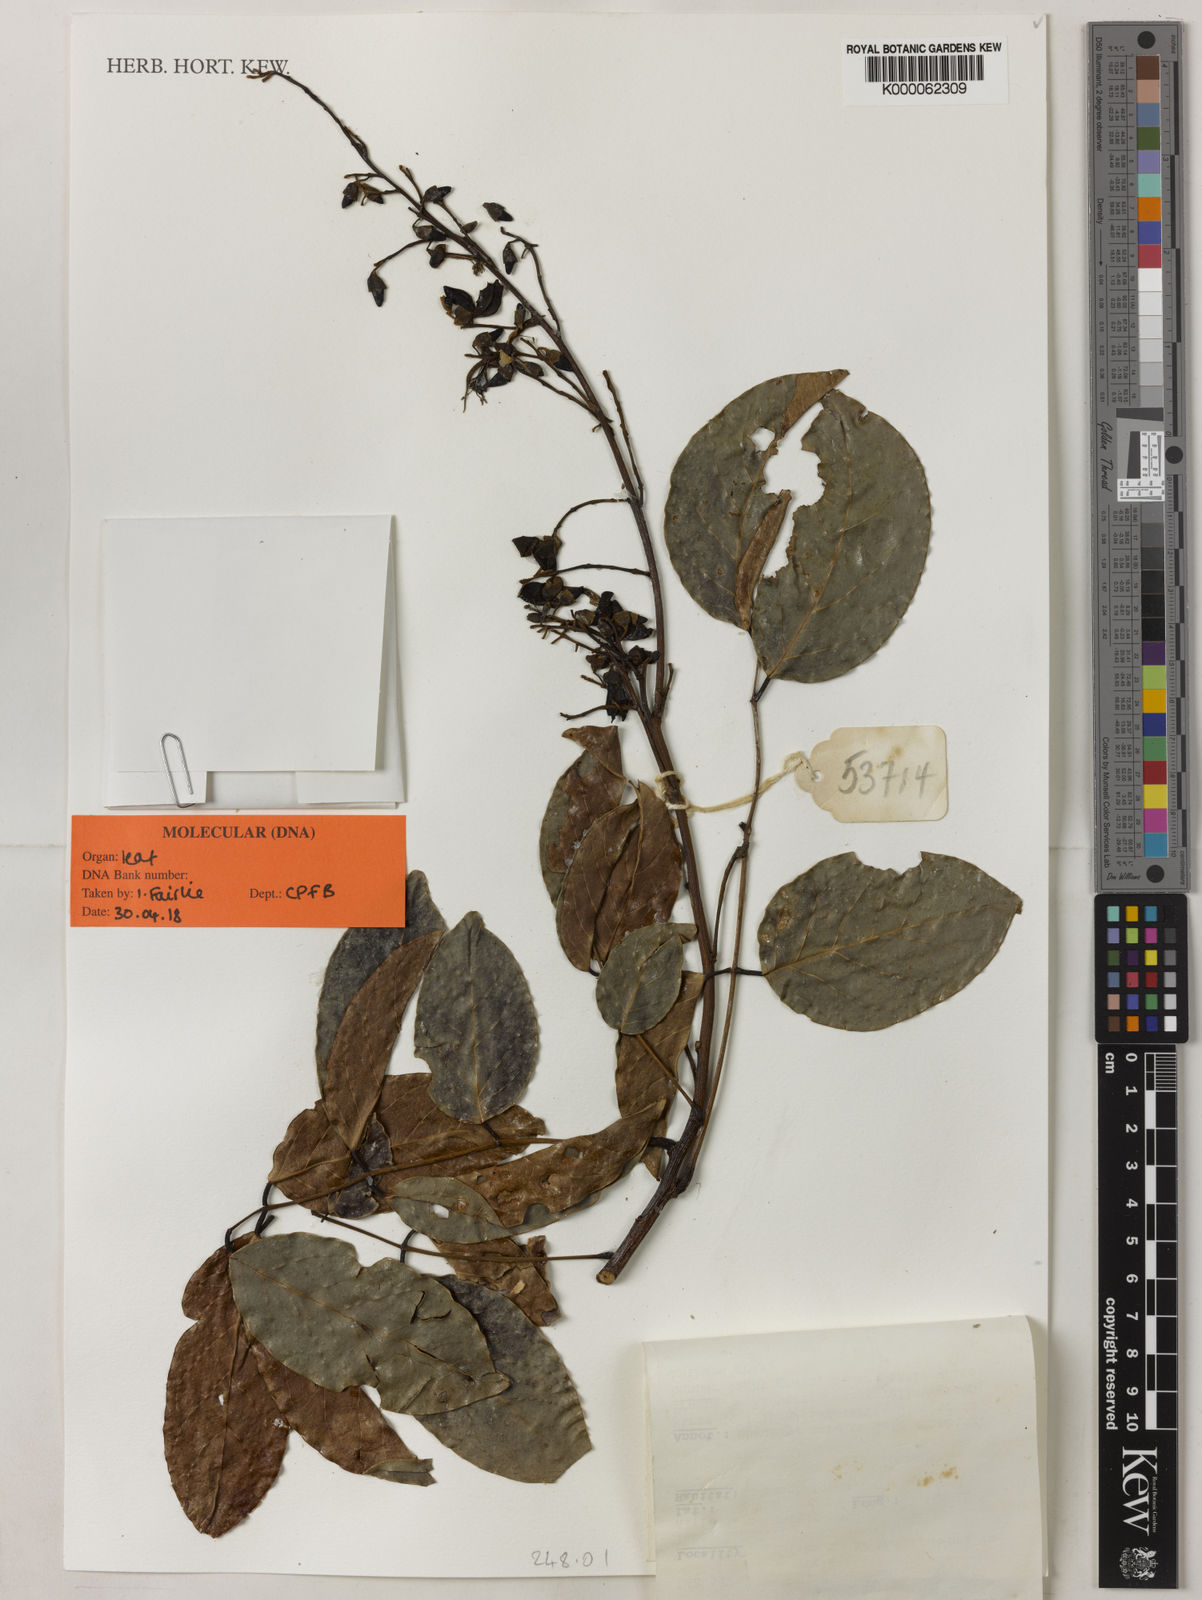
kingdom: Plantae
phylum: Tracheophyta
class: Magnoliopsida
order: Fabales
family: Fabaceae
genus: Aganope
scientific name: Aganope heptaphylla
